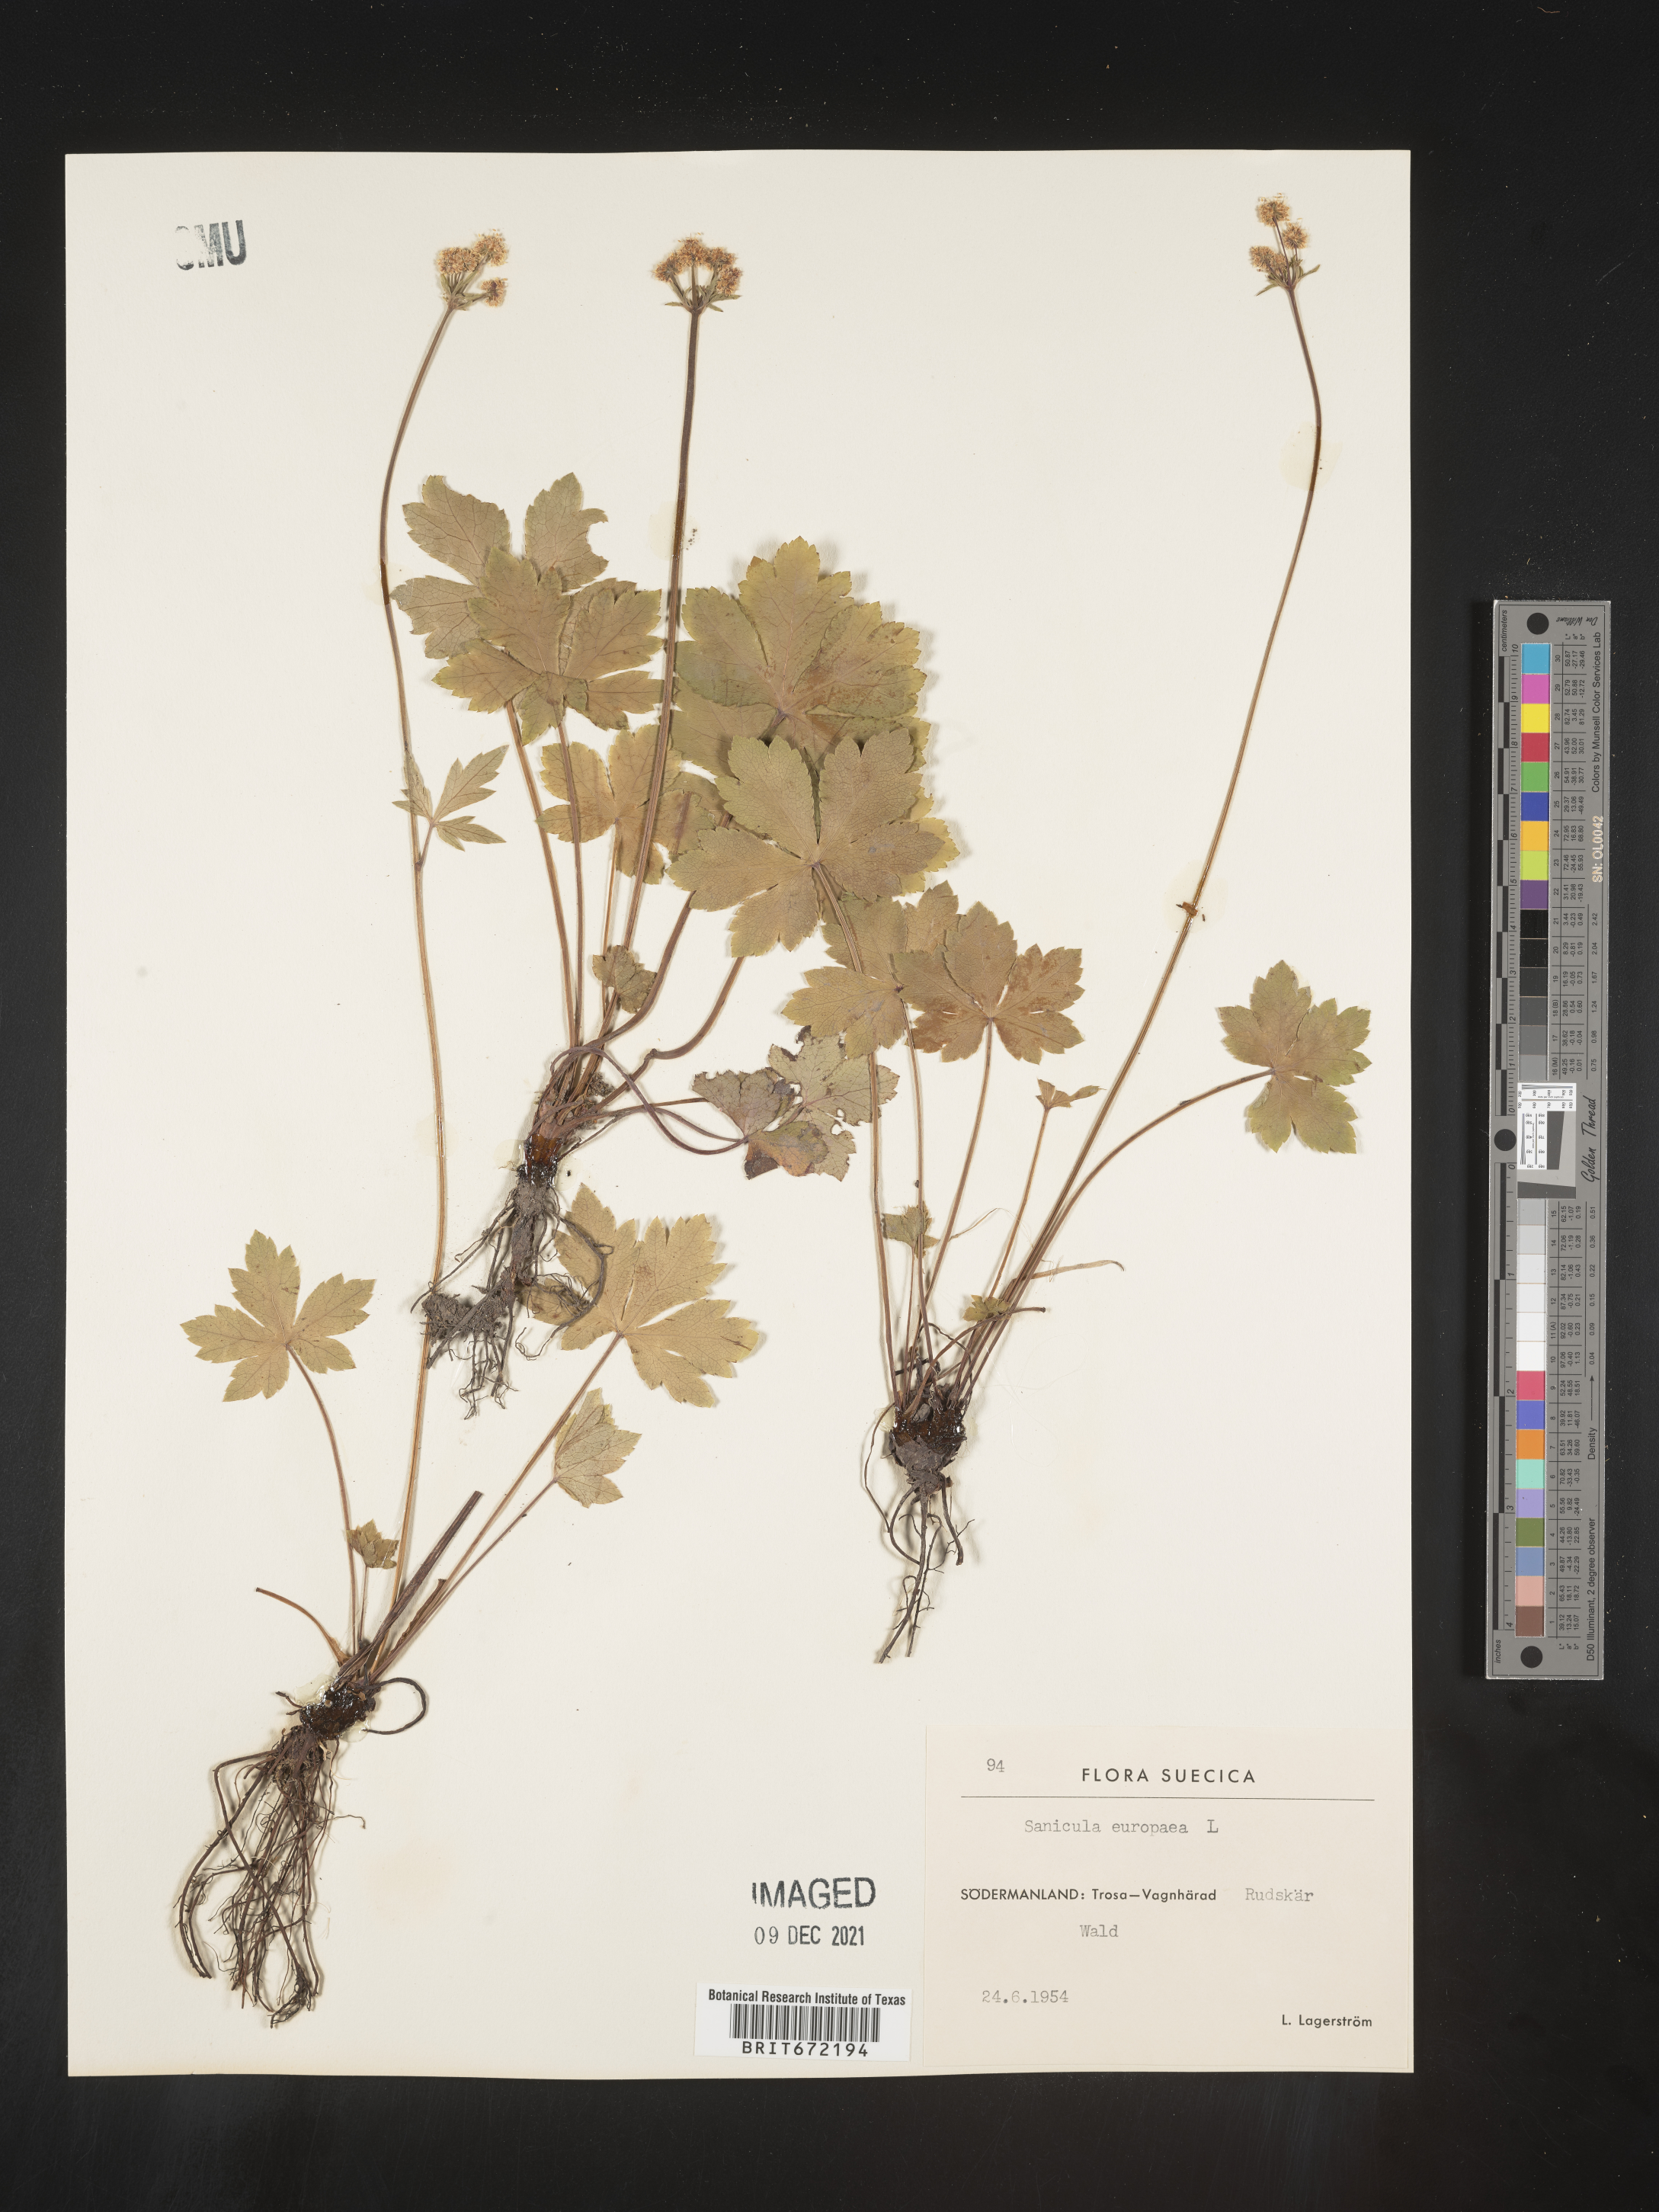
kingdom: Plantae
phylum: Tracheophyta
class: Magnoliopsida
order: Apiales
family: Apiaceae
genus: Sanicula
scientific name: Sanicula
